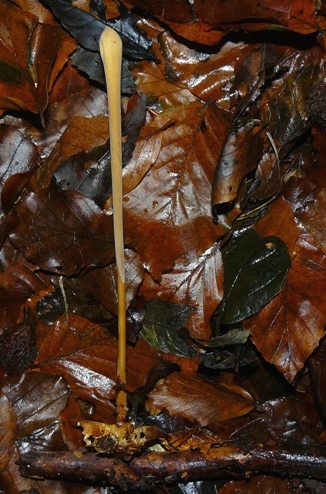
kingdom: Fungi
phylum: Basidiomycota
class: Agaricomycetes
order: Agaricales
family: Typhulaceae
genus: Typhula
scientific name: Typhula fistulosa
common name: pibet rørkølle
